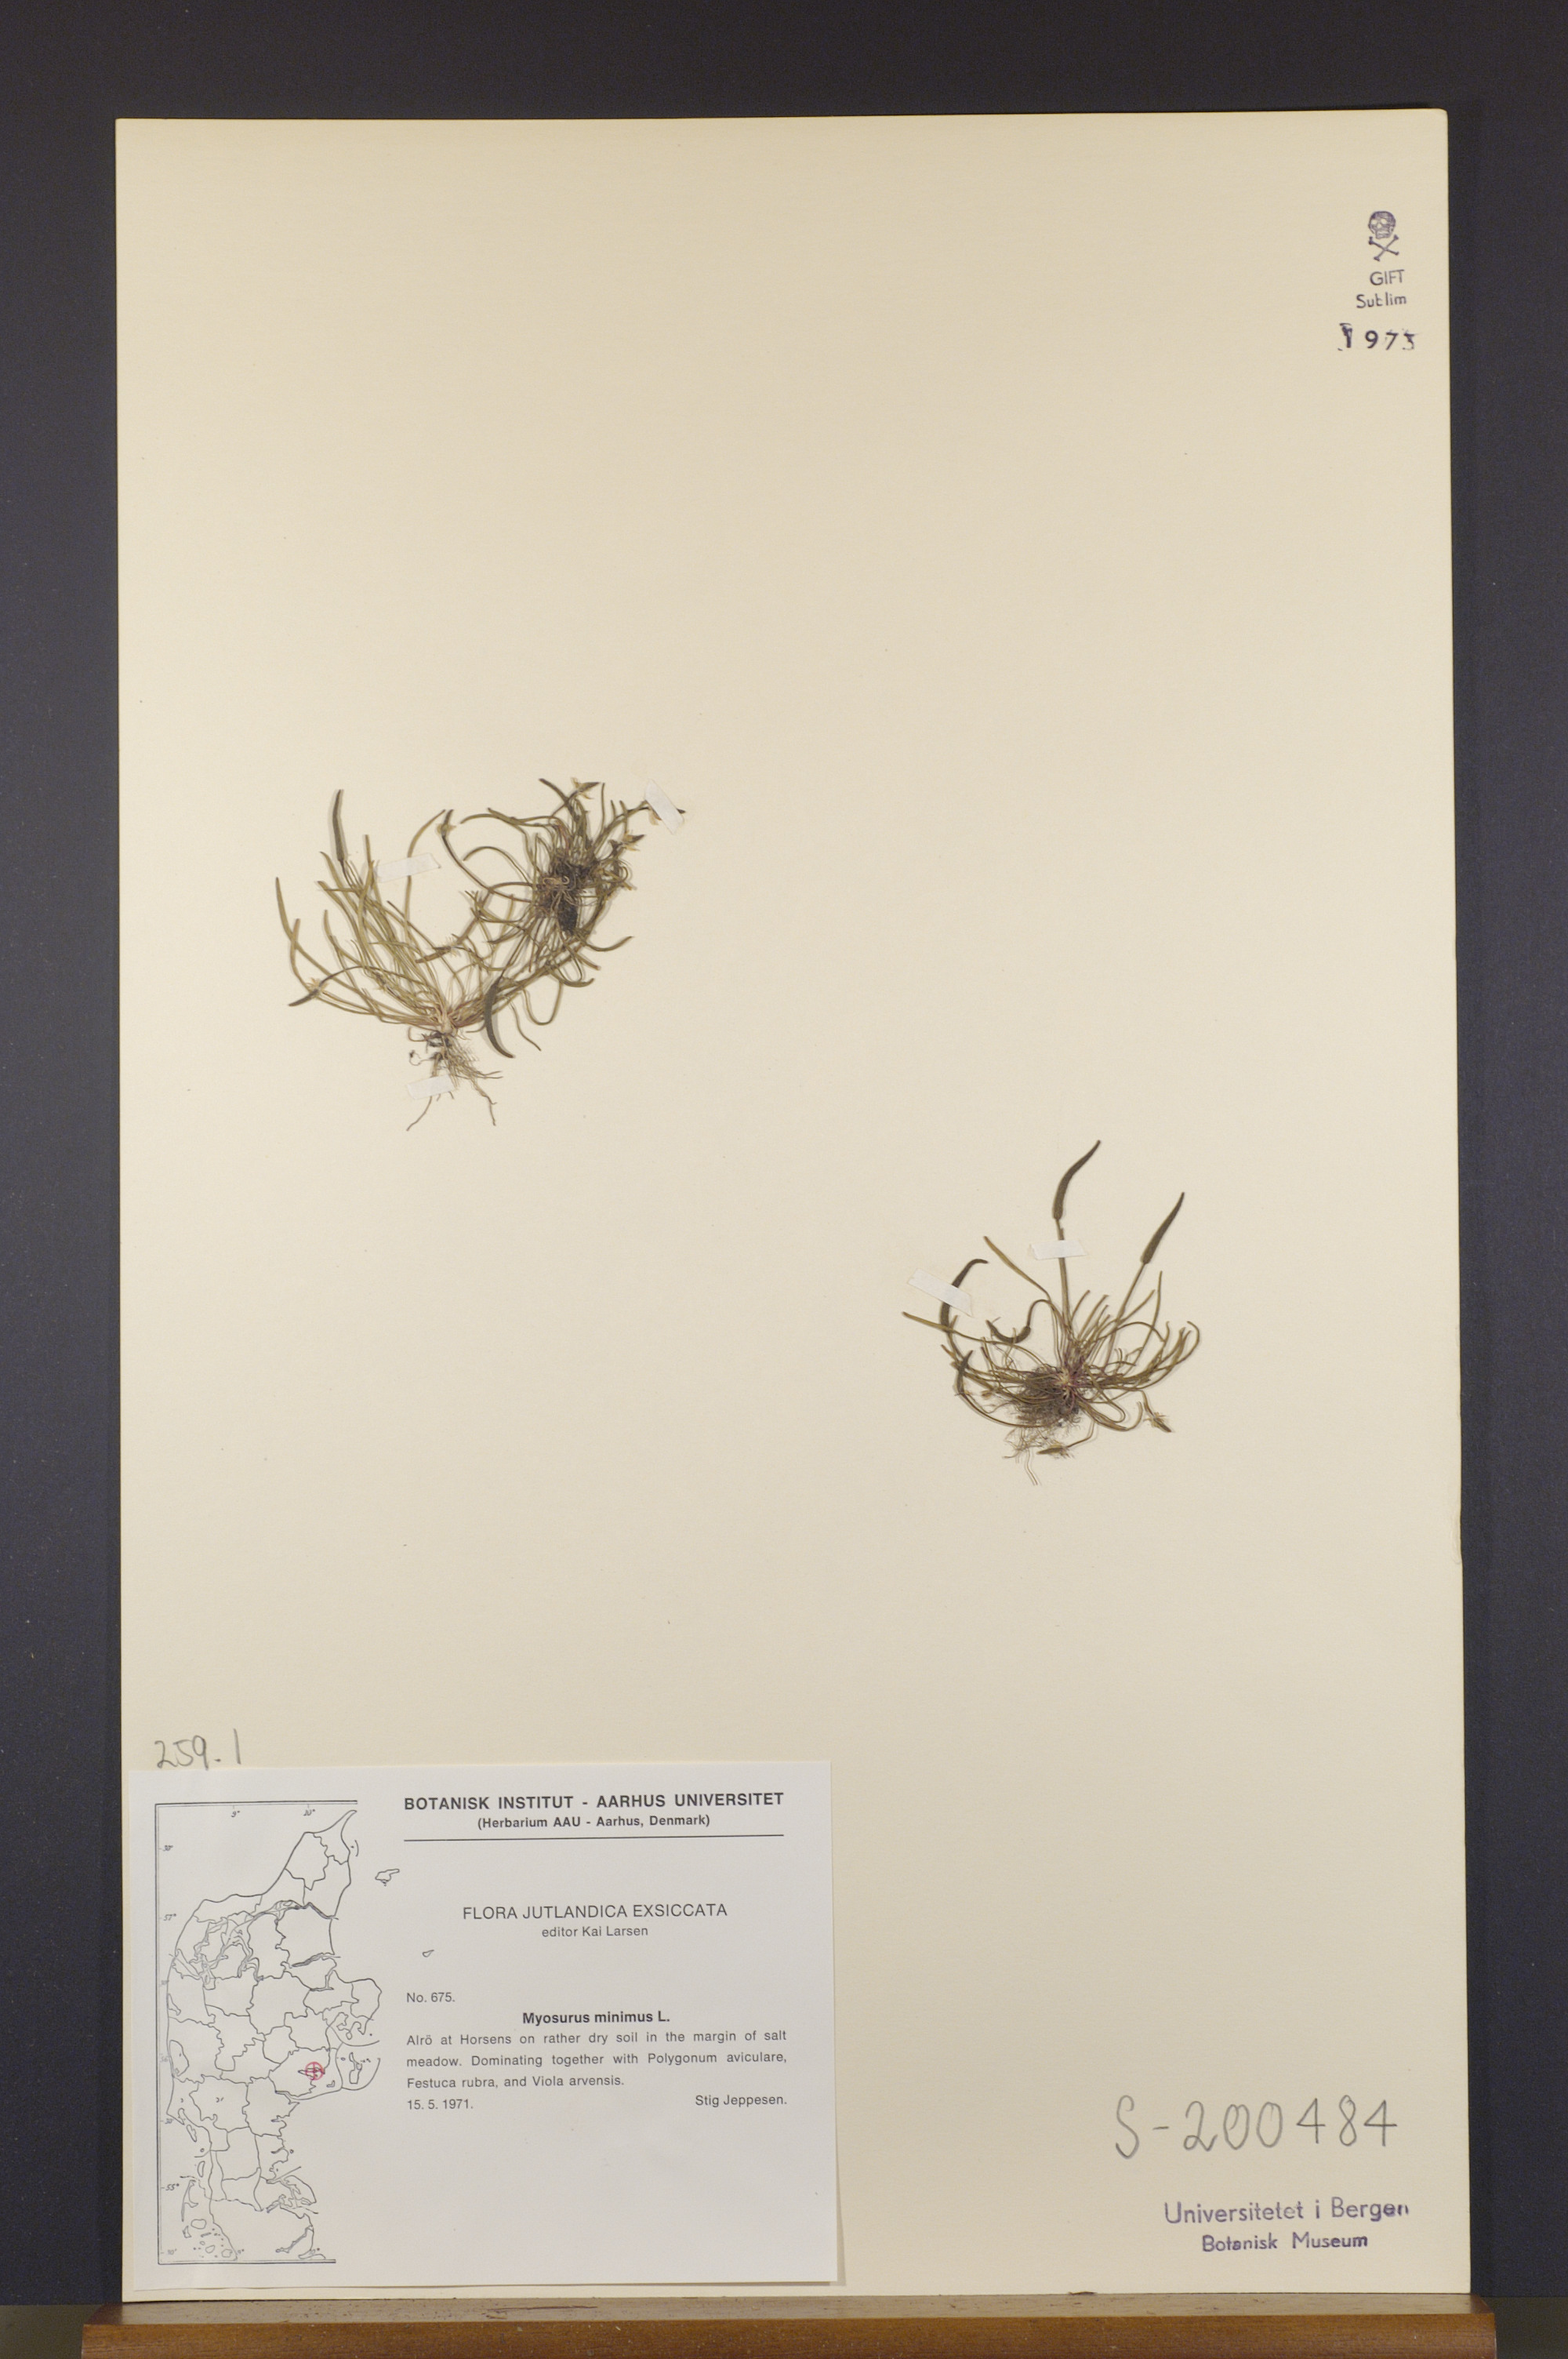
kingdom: Plantae
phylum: Tracheophyta
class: Magnoliopsida
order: Ranunculales
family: Ranunculaceae
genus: Myosurus
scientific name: Myosurus minimus
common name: Mousetail
